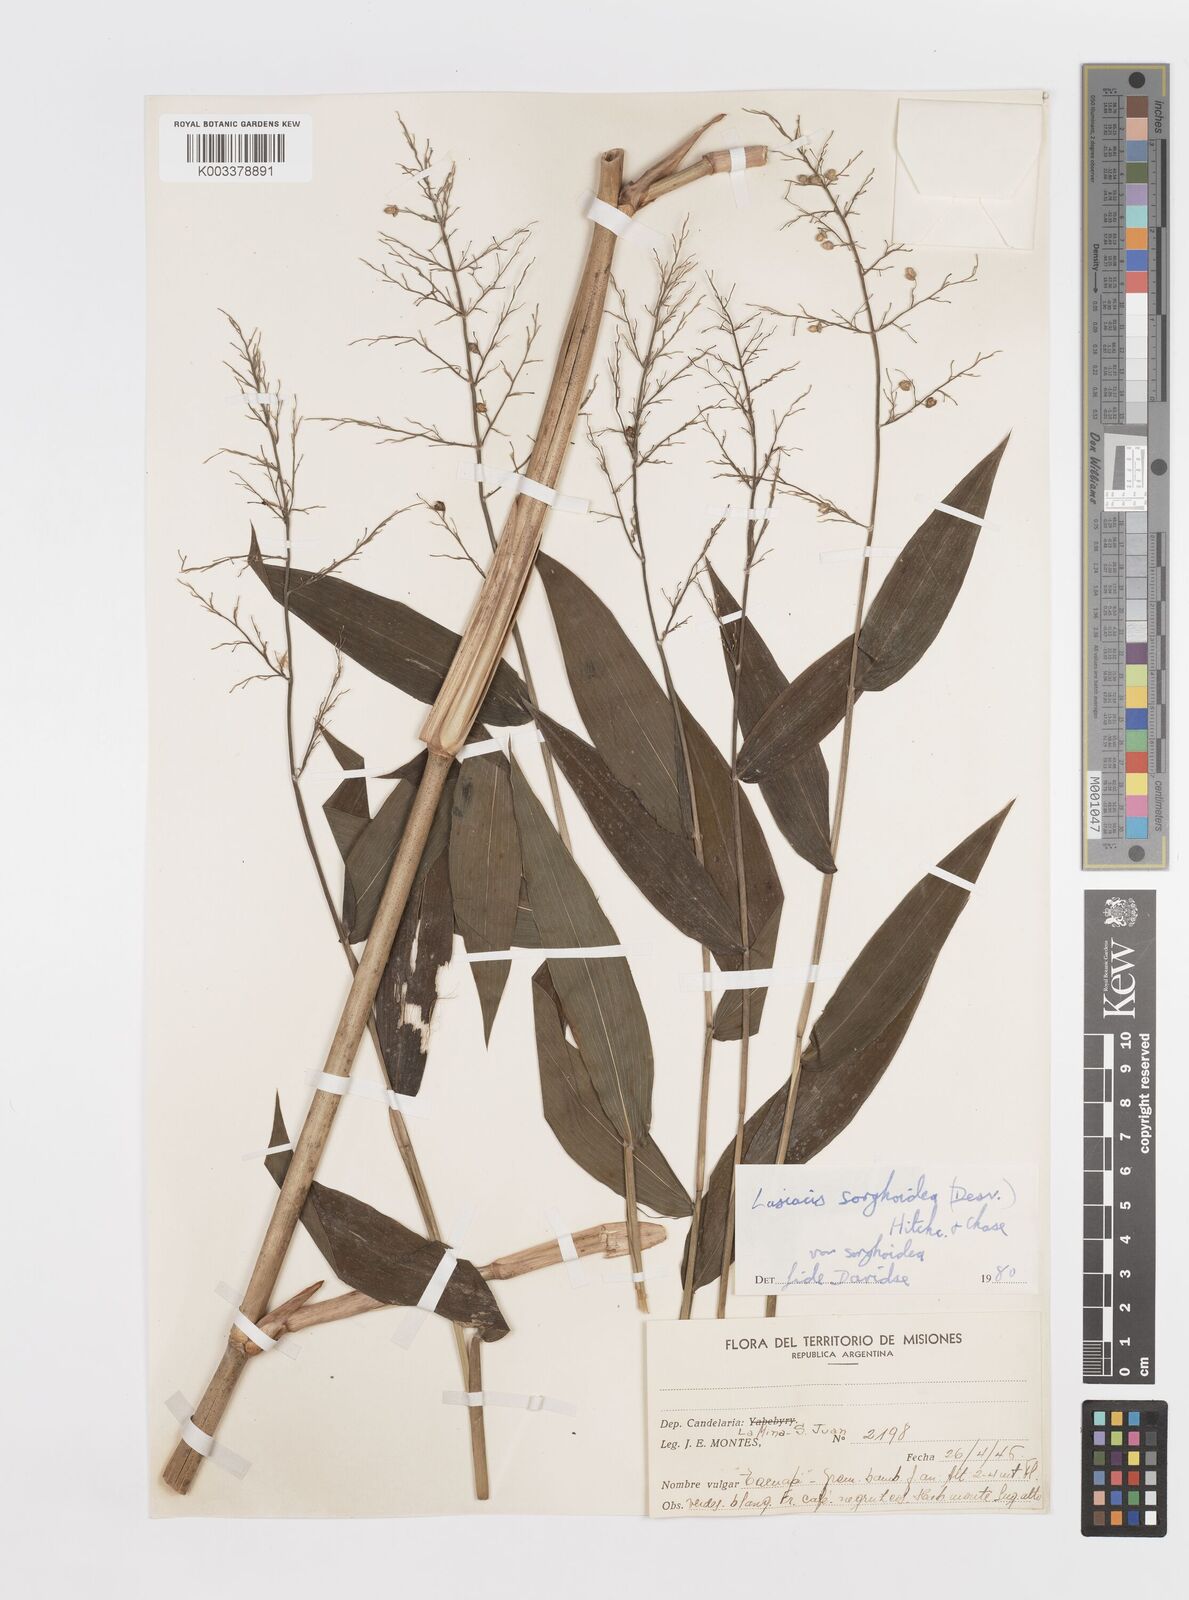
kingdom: Plantae
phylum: Tracheophyta
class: Liliopsida
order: Poales
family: Poaceae
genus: Lasiacis
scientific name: Lasiacis maculata
